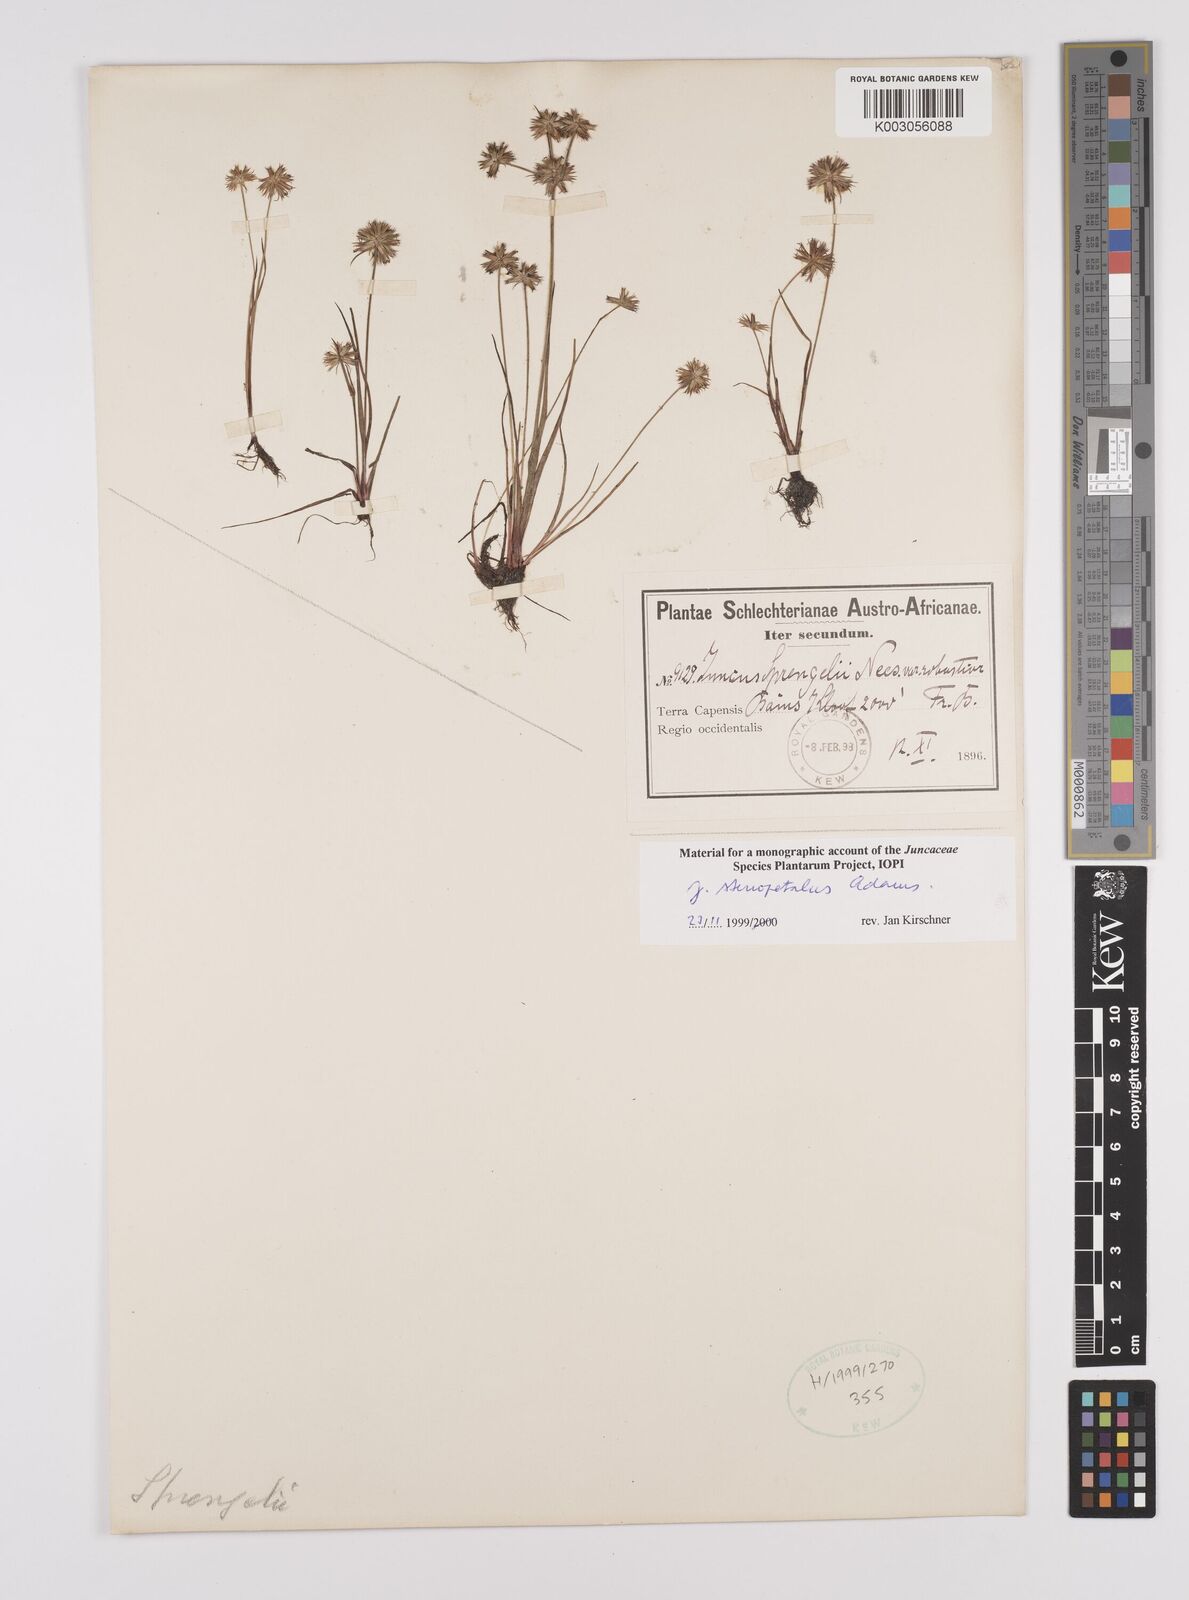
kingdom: Plantae
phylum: Tracheophyta
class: Liliopsida
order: Poales
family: Juncaceae
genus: Juncus
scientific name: Juncus stenopetalus
